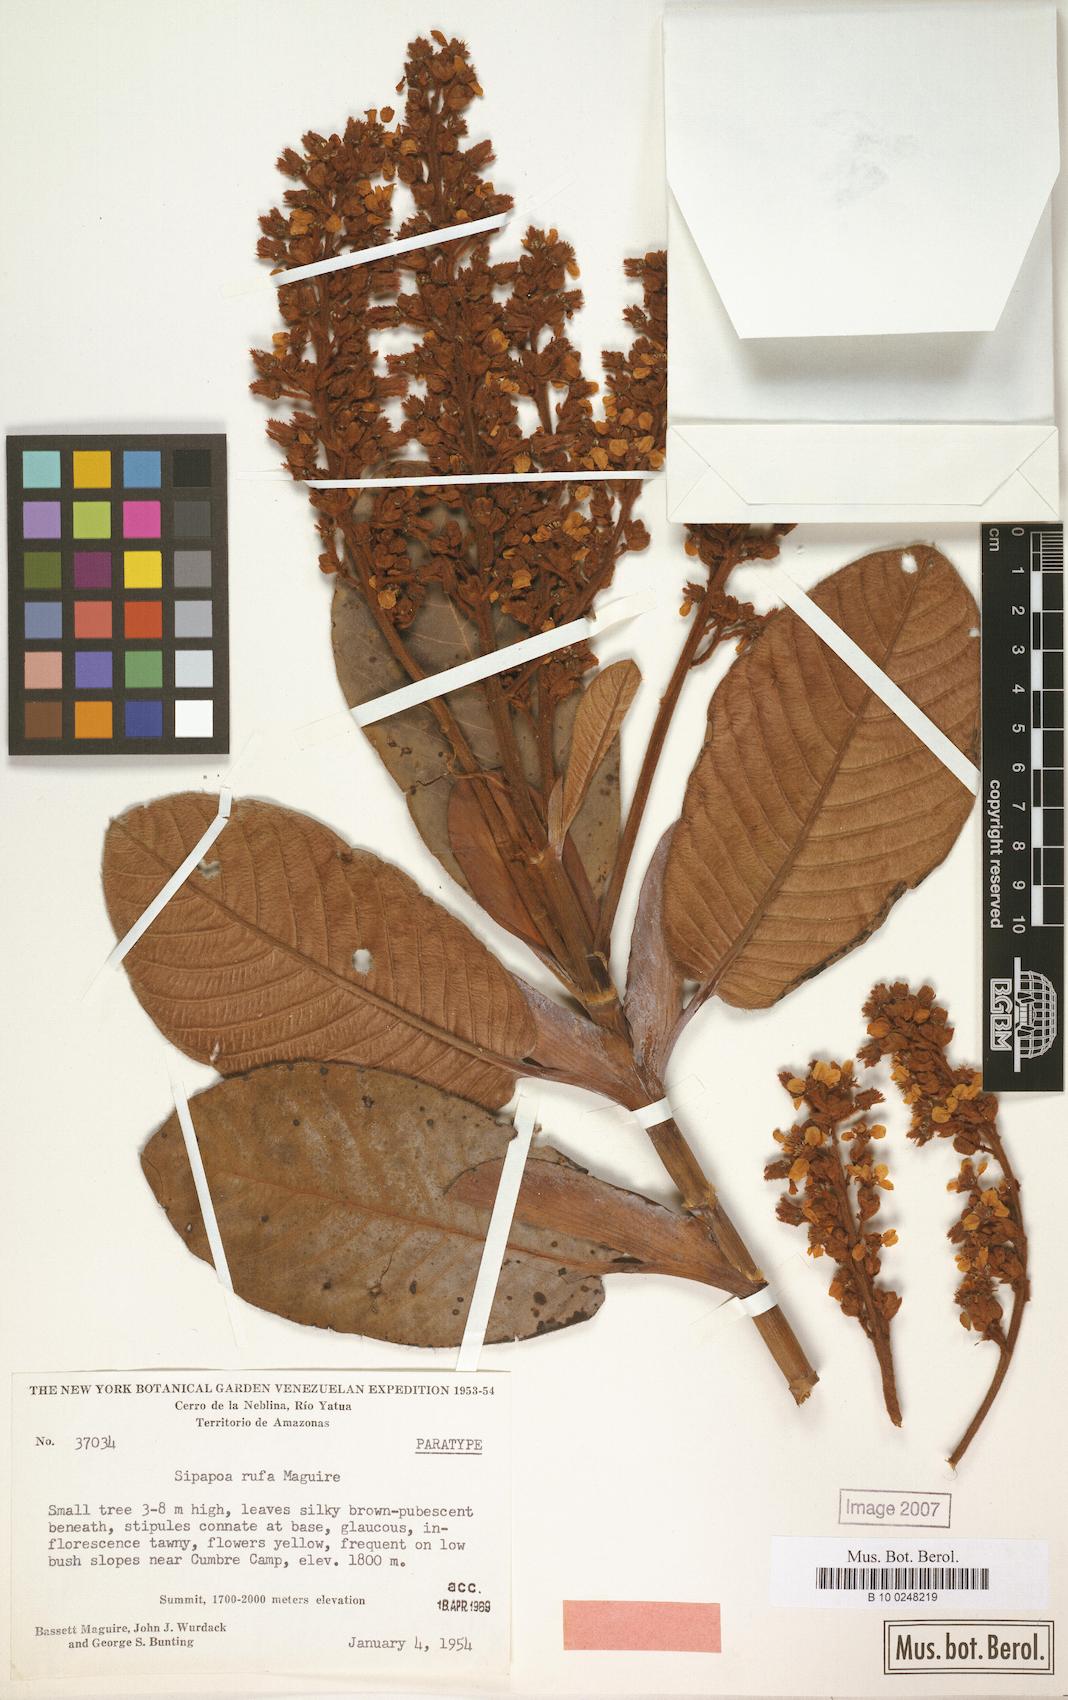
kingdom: Plantae
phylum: Tracheophyta
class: Magnoliopsida
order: Malpighiales
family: Malpighiaceae
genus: Diacidia
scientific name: Diacidia rufa
